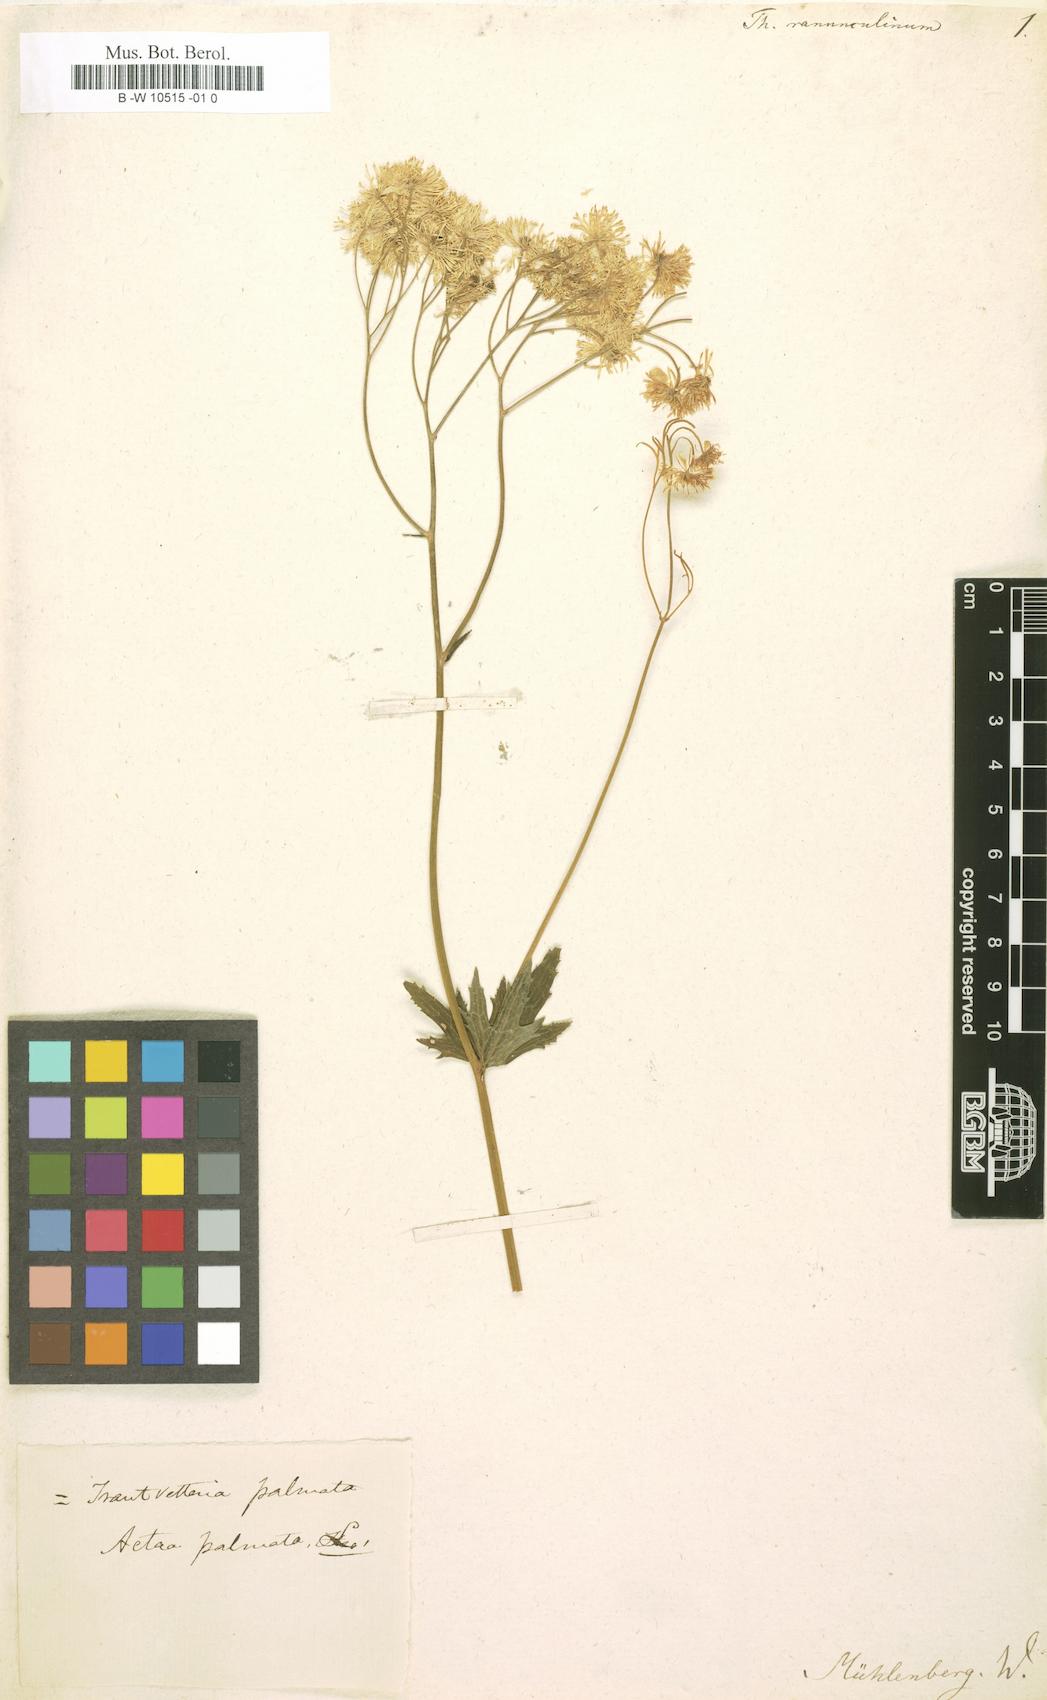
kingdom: Plantae
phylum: Tracheophyta
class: Magnoliopsida
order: Ranunculales
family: Ranunculaceae
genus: Trautvetteria
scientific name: Trautvetteria carolinensis
